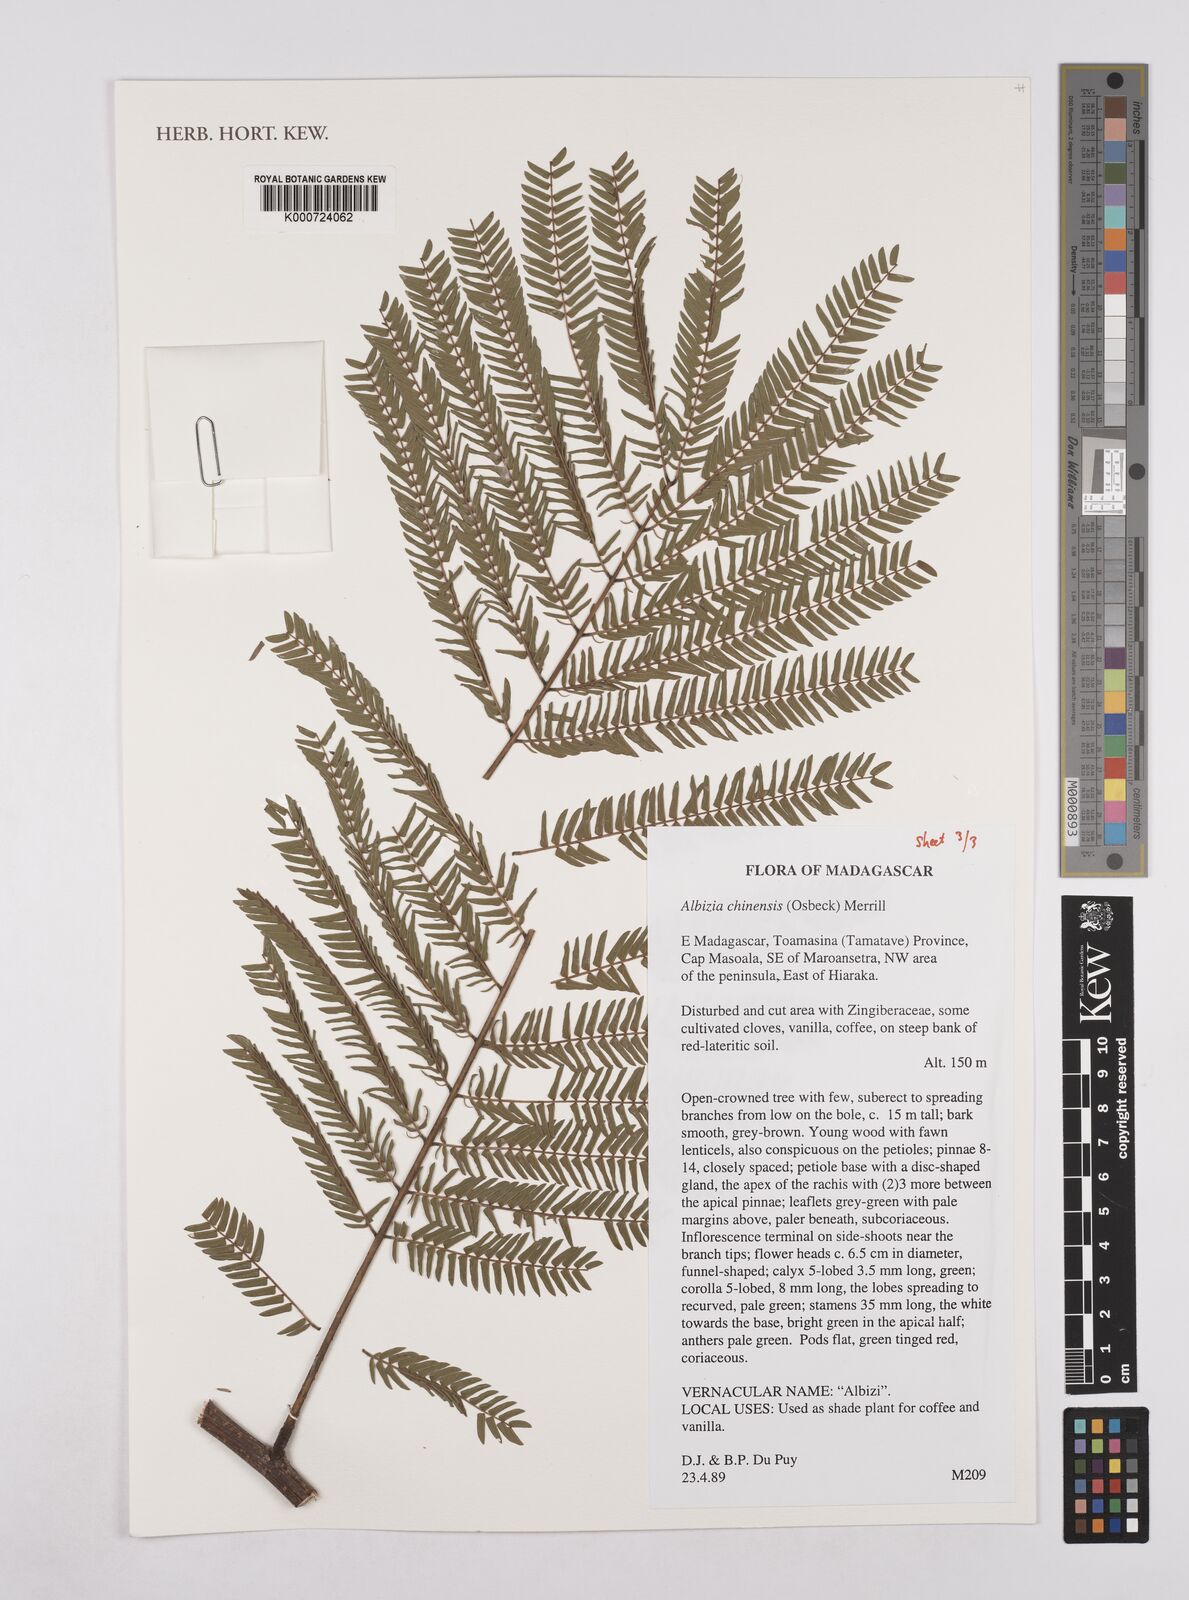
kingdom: Plantae
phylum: Tracheophyta
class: Magnoliopsida
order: Fabales
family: Fabaceae
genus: Albizia
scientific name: Albizia chinensis
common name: Chinese albizia
